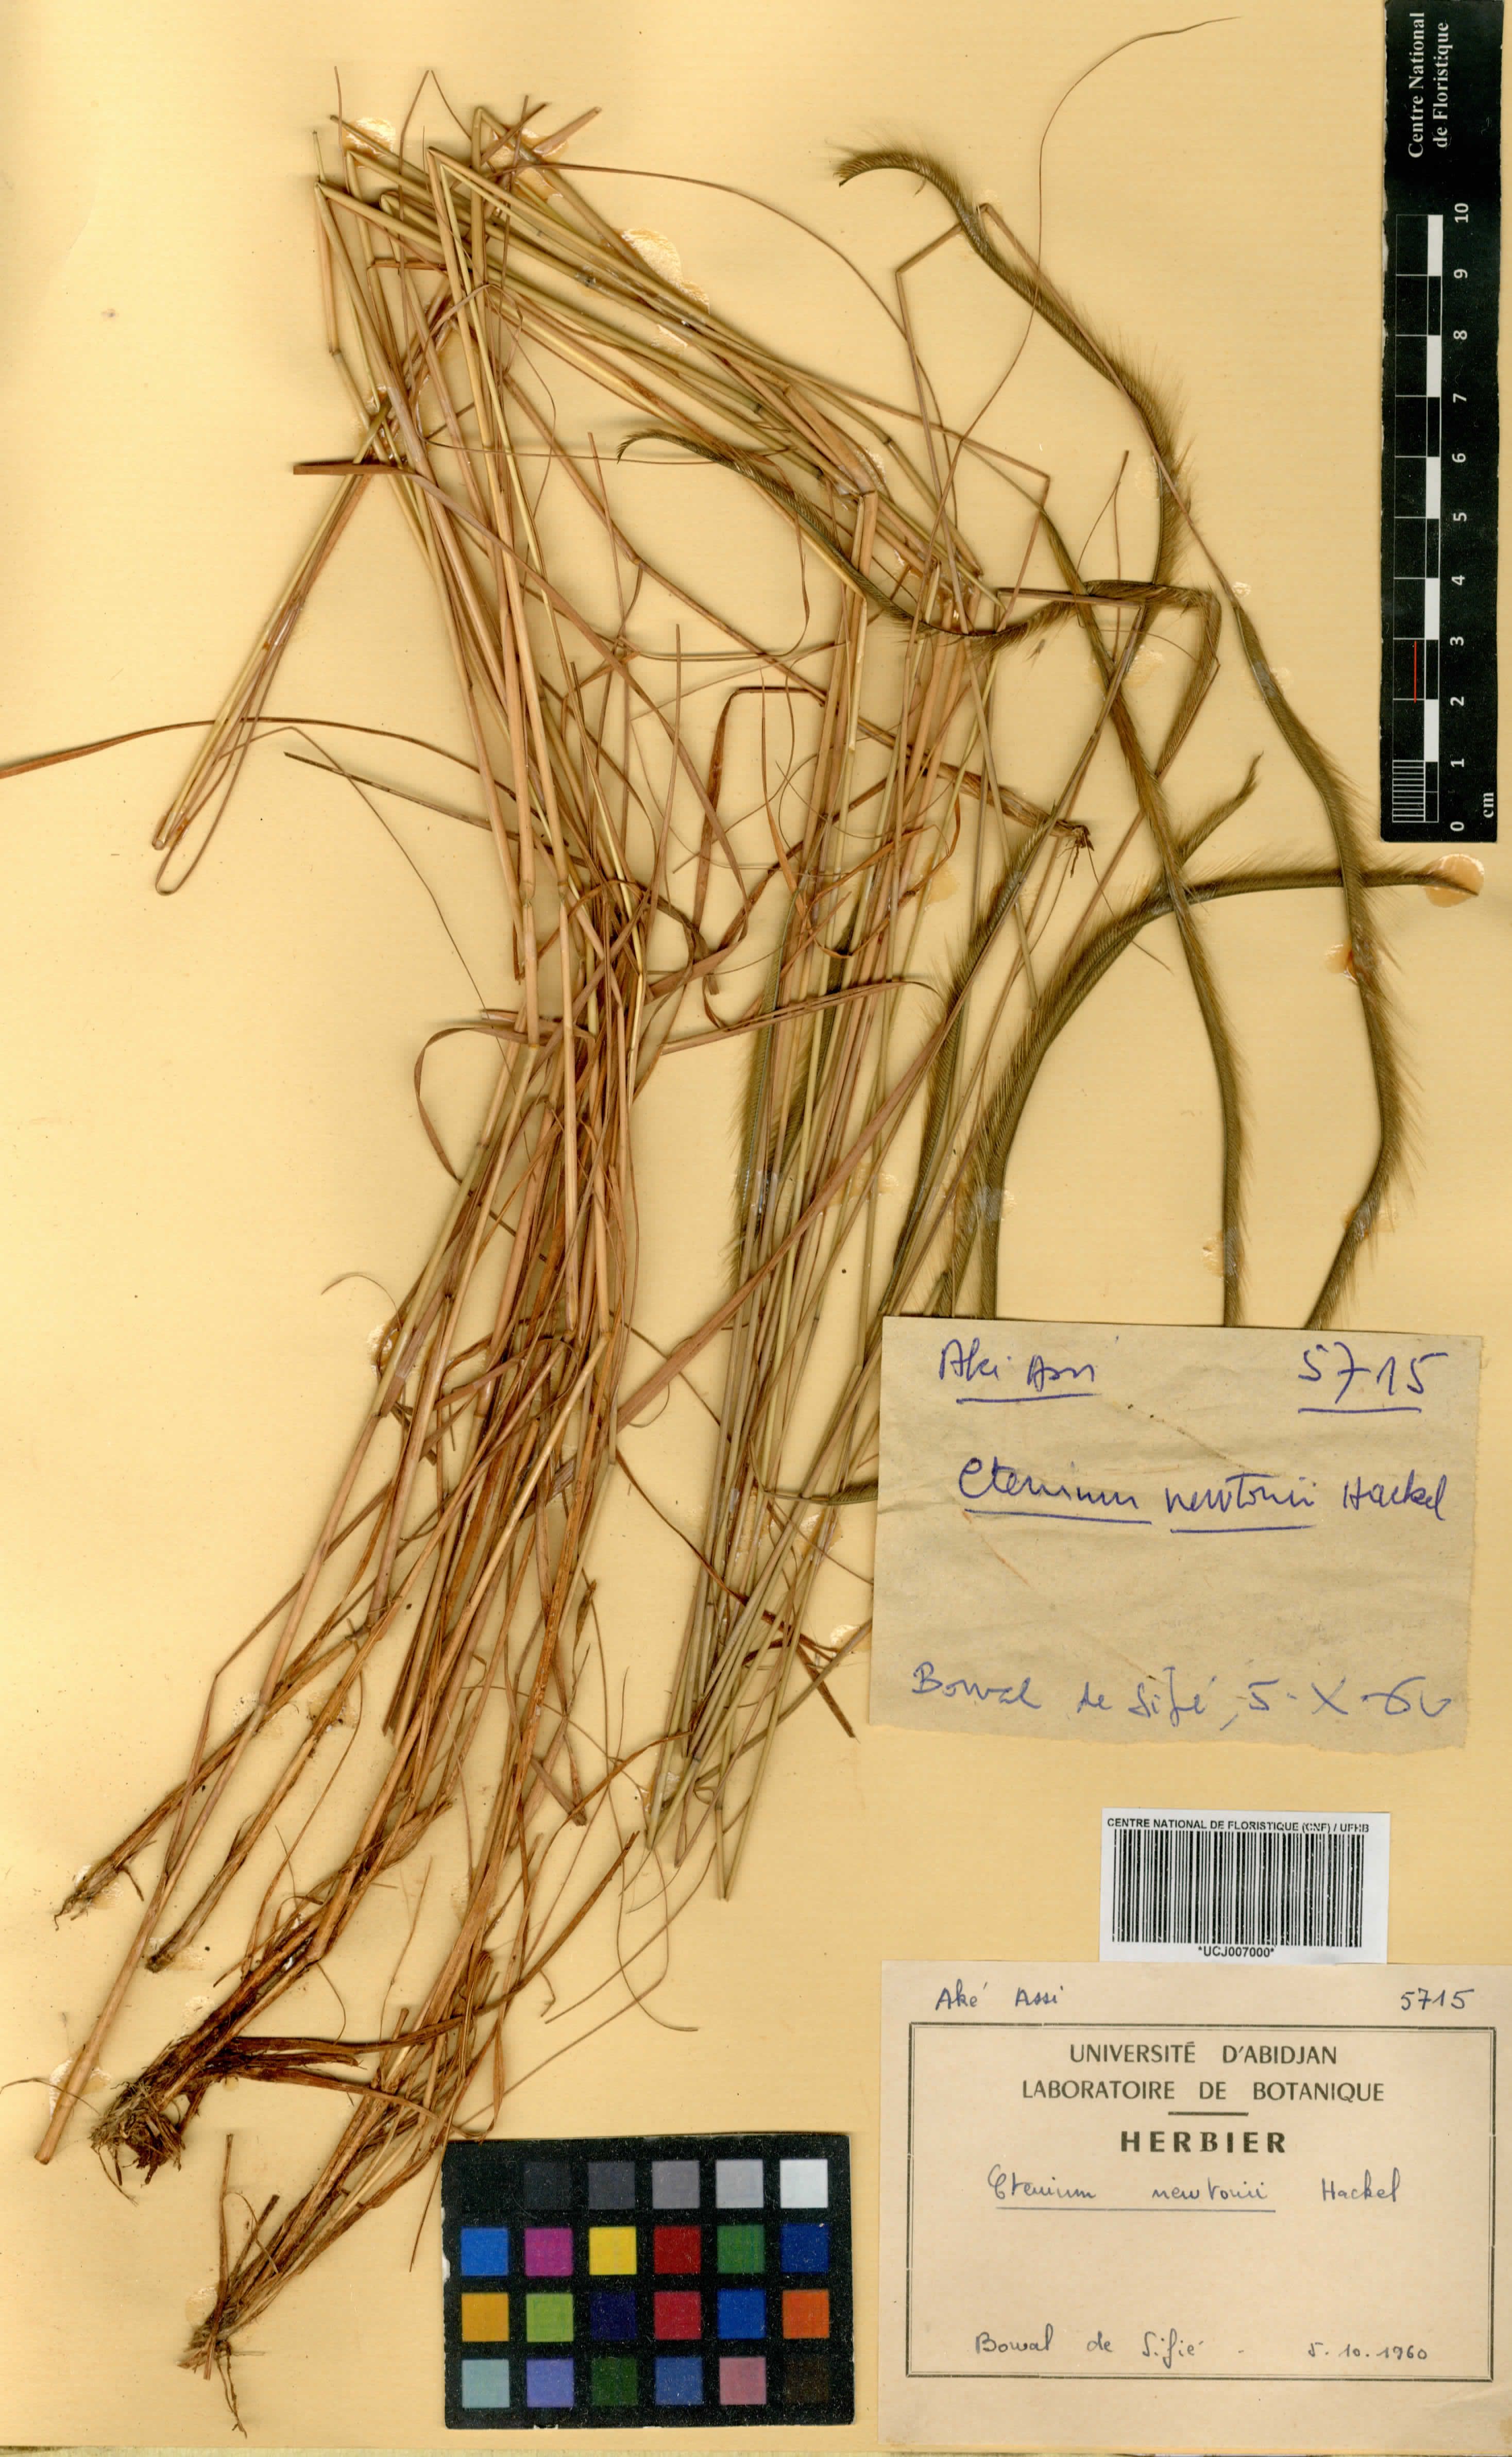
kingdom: Plantae
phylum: Tracheophyta
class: Liliopsida
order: Poales
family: Poaceae
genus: Ctenium
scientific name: Ctenium newtonii
